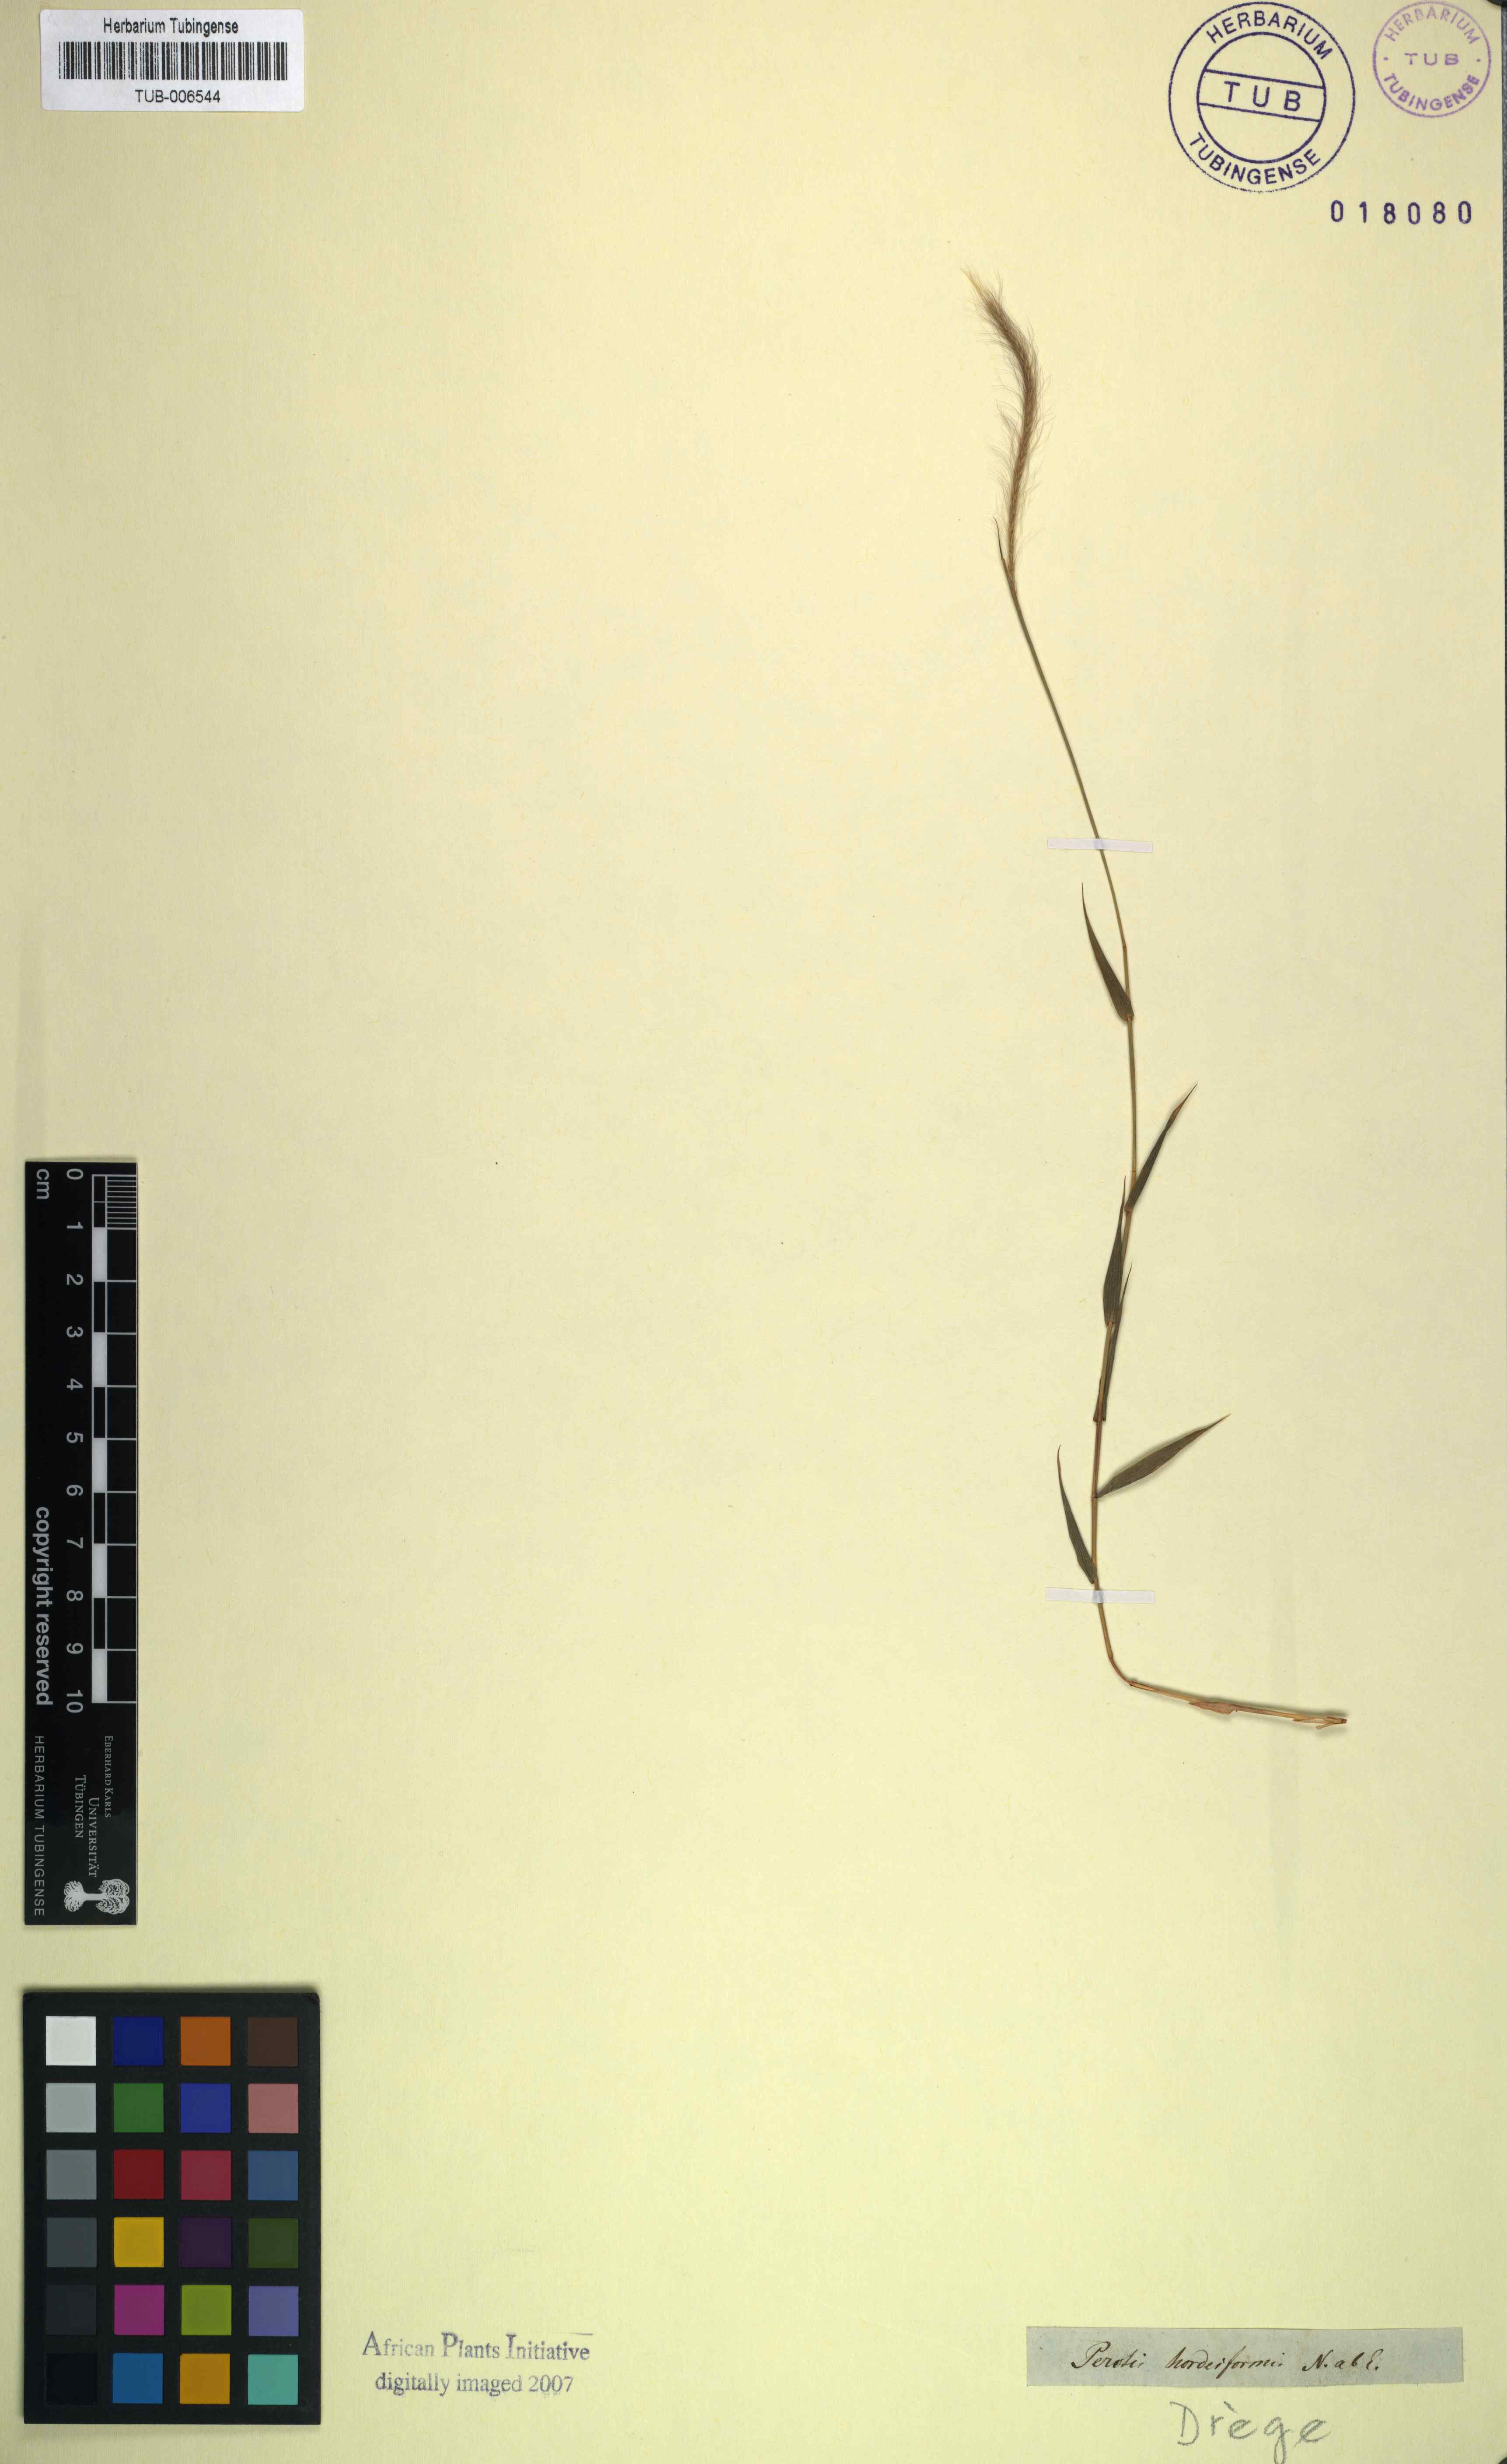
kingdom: Plantae
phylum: Tracheophyta
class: Liliopsida
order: Poales
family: Poaceae
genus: Perotis
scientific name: Perotis hordeiformis
